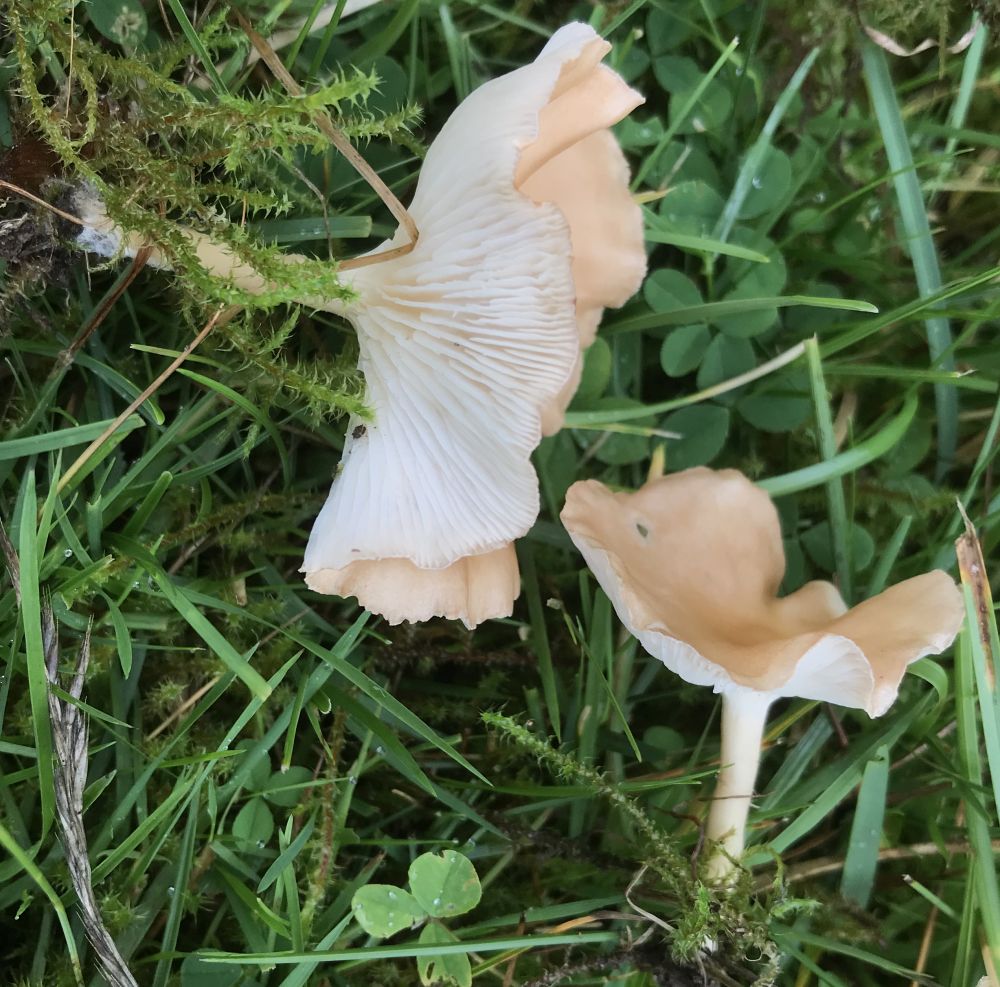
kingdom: Fungi
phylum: Basidiomycota
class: Agaricomycetes
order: Agaricales
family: Tricholomataceae
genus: Infundibulicybe
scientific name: Infundibulicybe gibba
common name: almindelig tragthat
